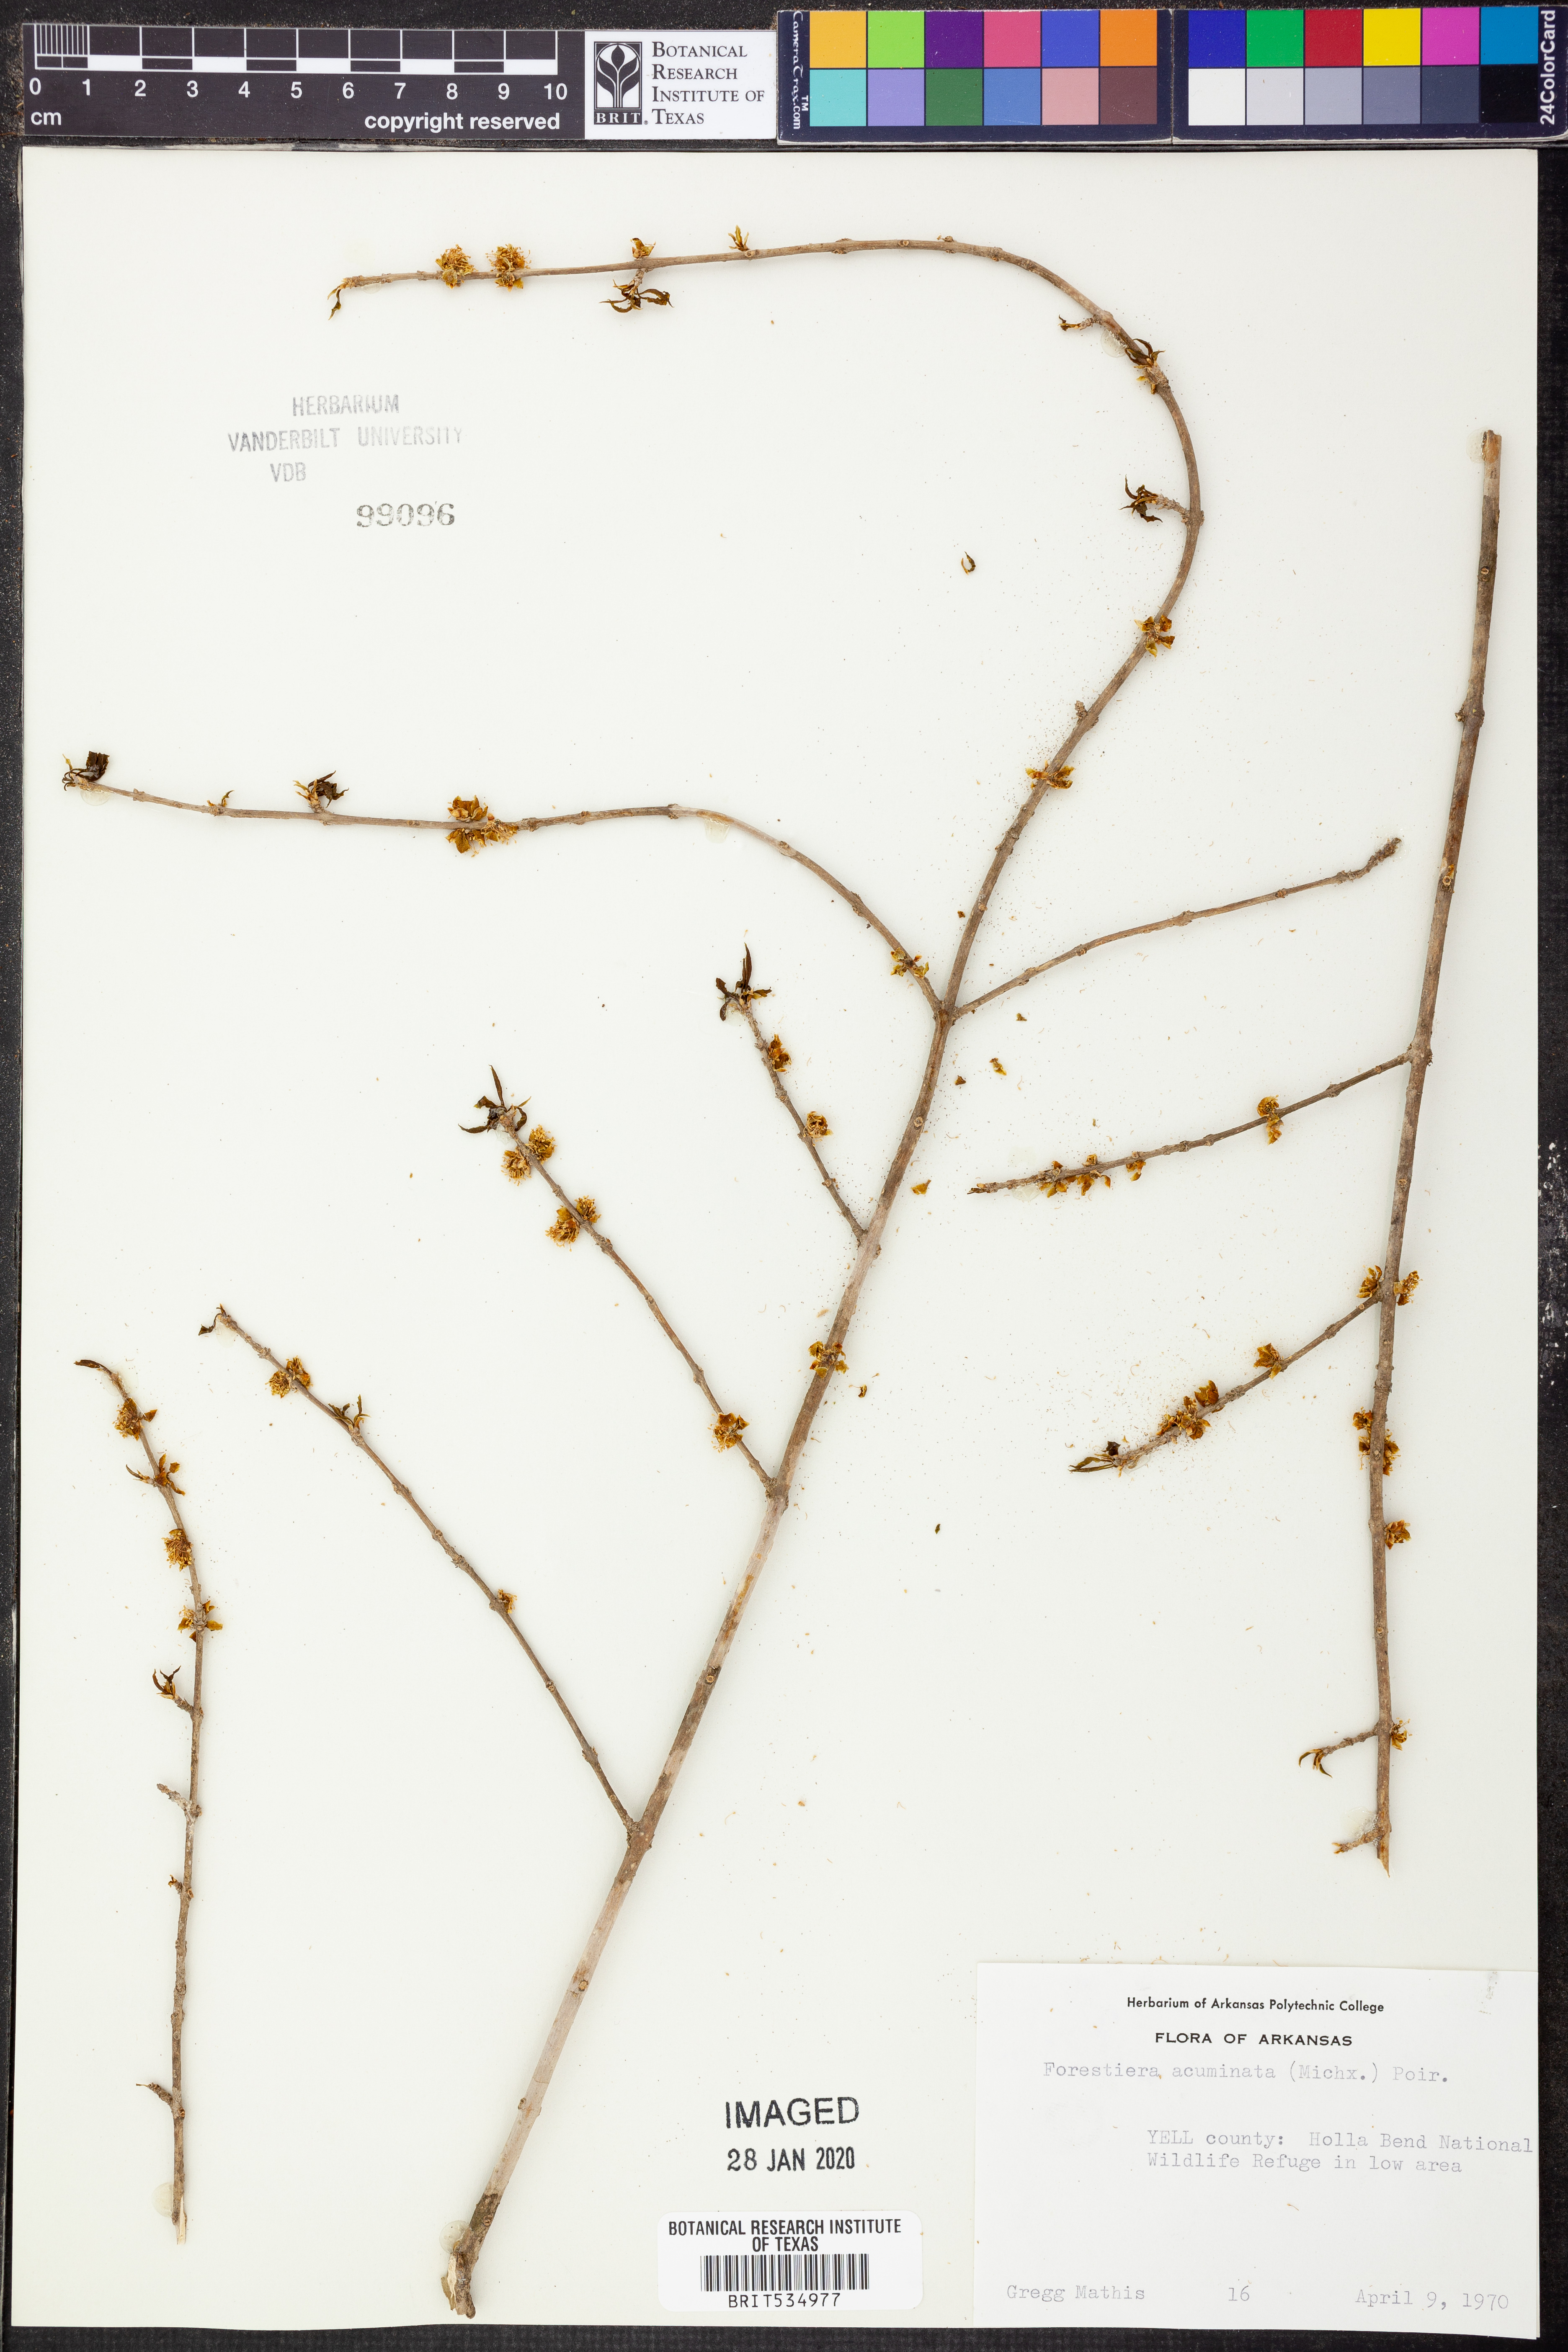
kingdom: Plantae
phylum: Tracheophyta
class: Magnoliopsida
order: Lamiales
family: Oleaceae
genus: Forestiera
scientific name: Forestiera acuminata
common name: Swamp-privet
